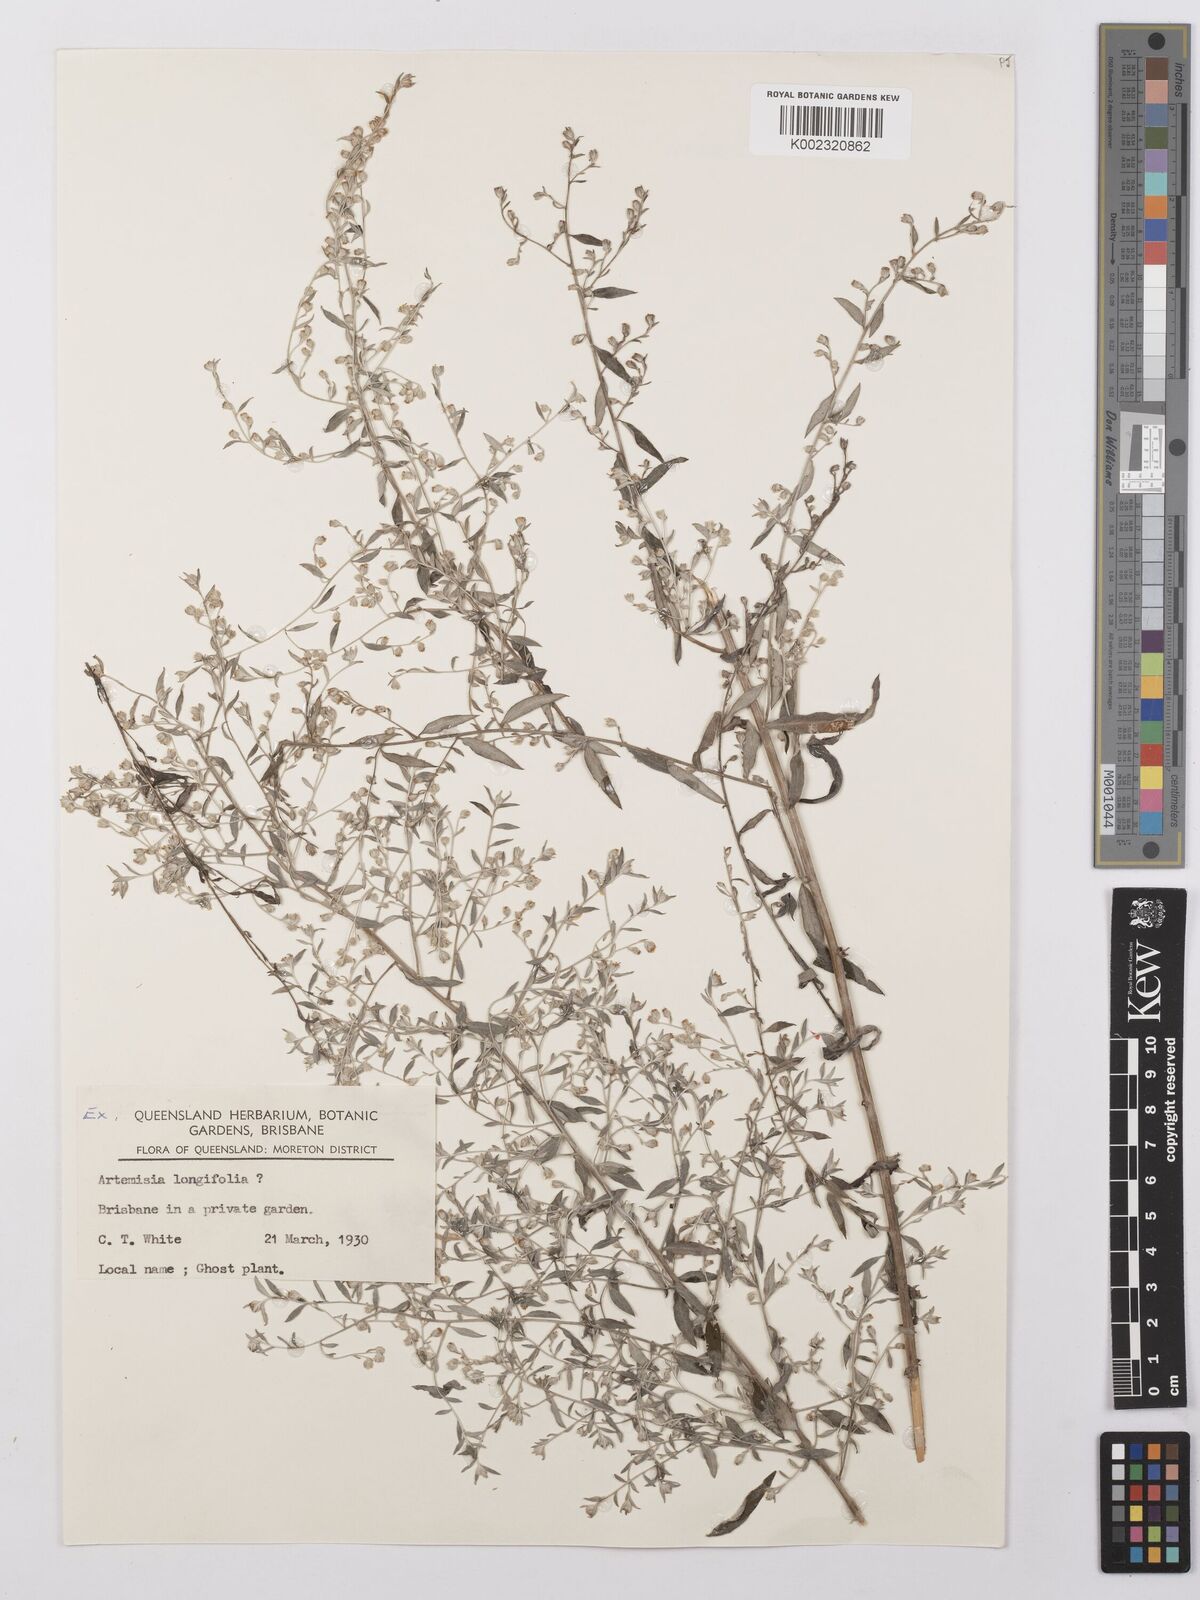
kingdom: Plantae
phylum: Tracheophyta
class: Magnoliopsida
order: Asterales
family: Asteraceae
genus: Artemisia
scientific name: Artemisia ludoviciana
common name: Western mugwort
